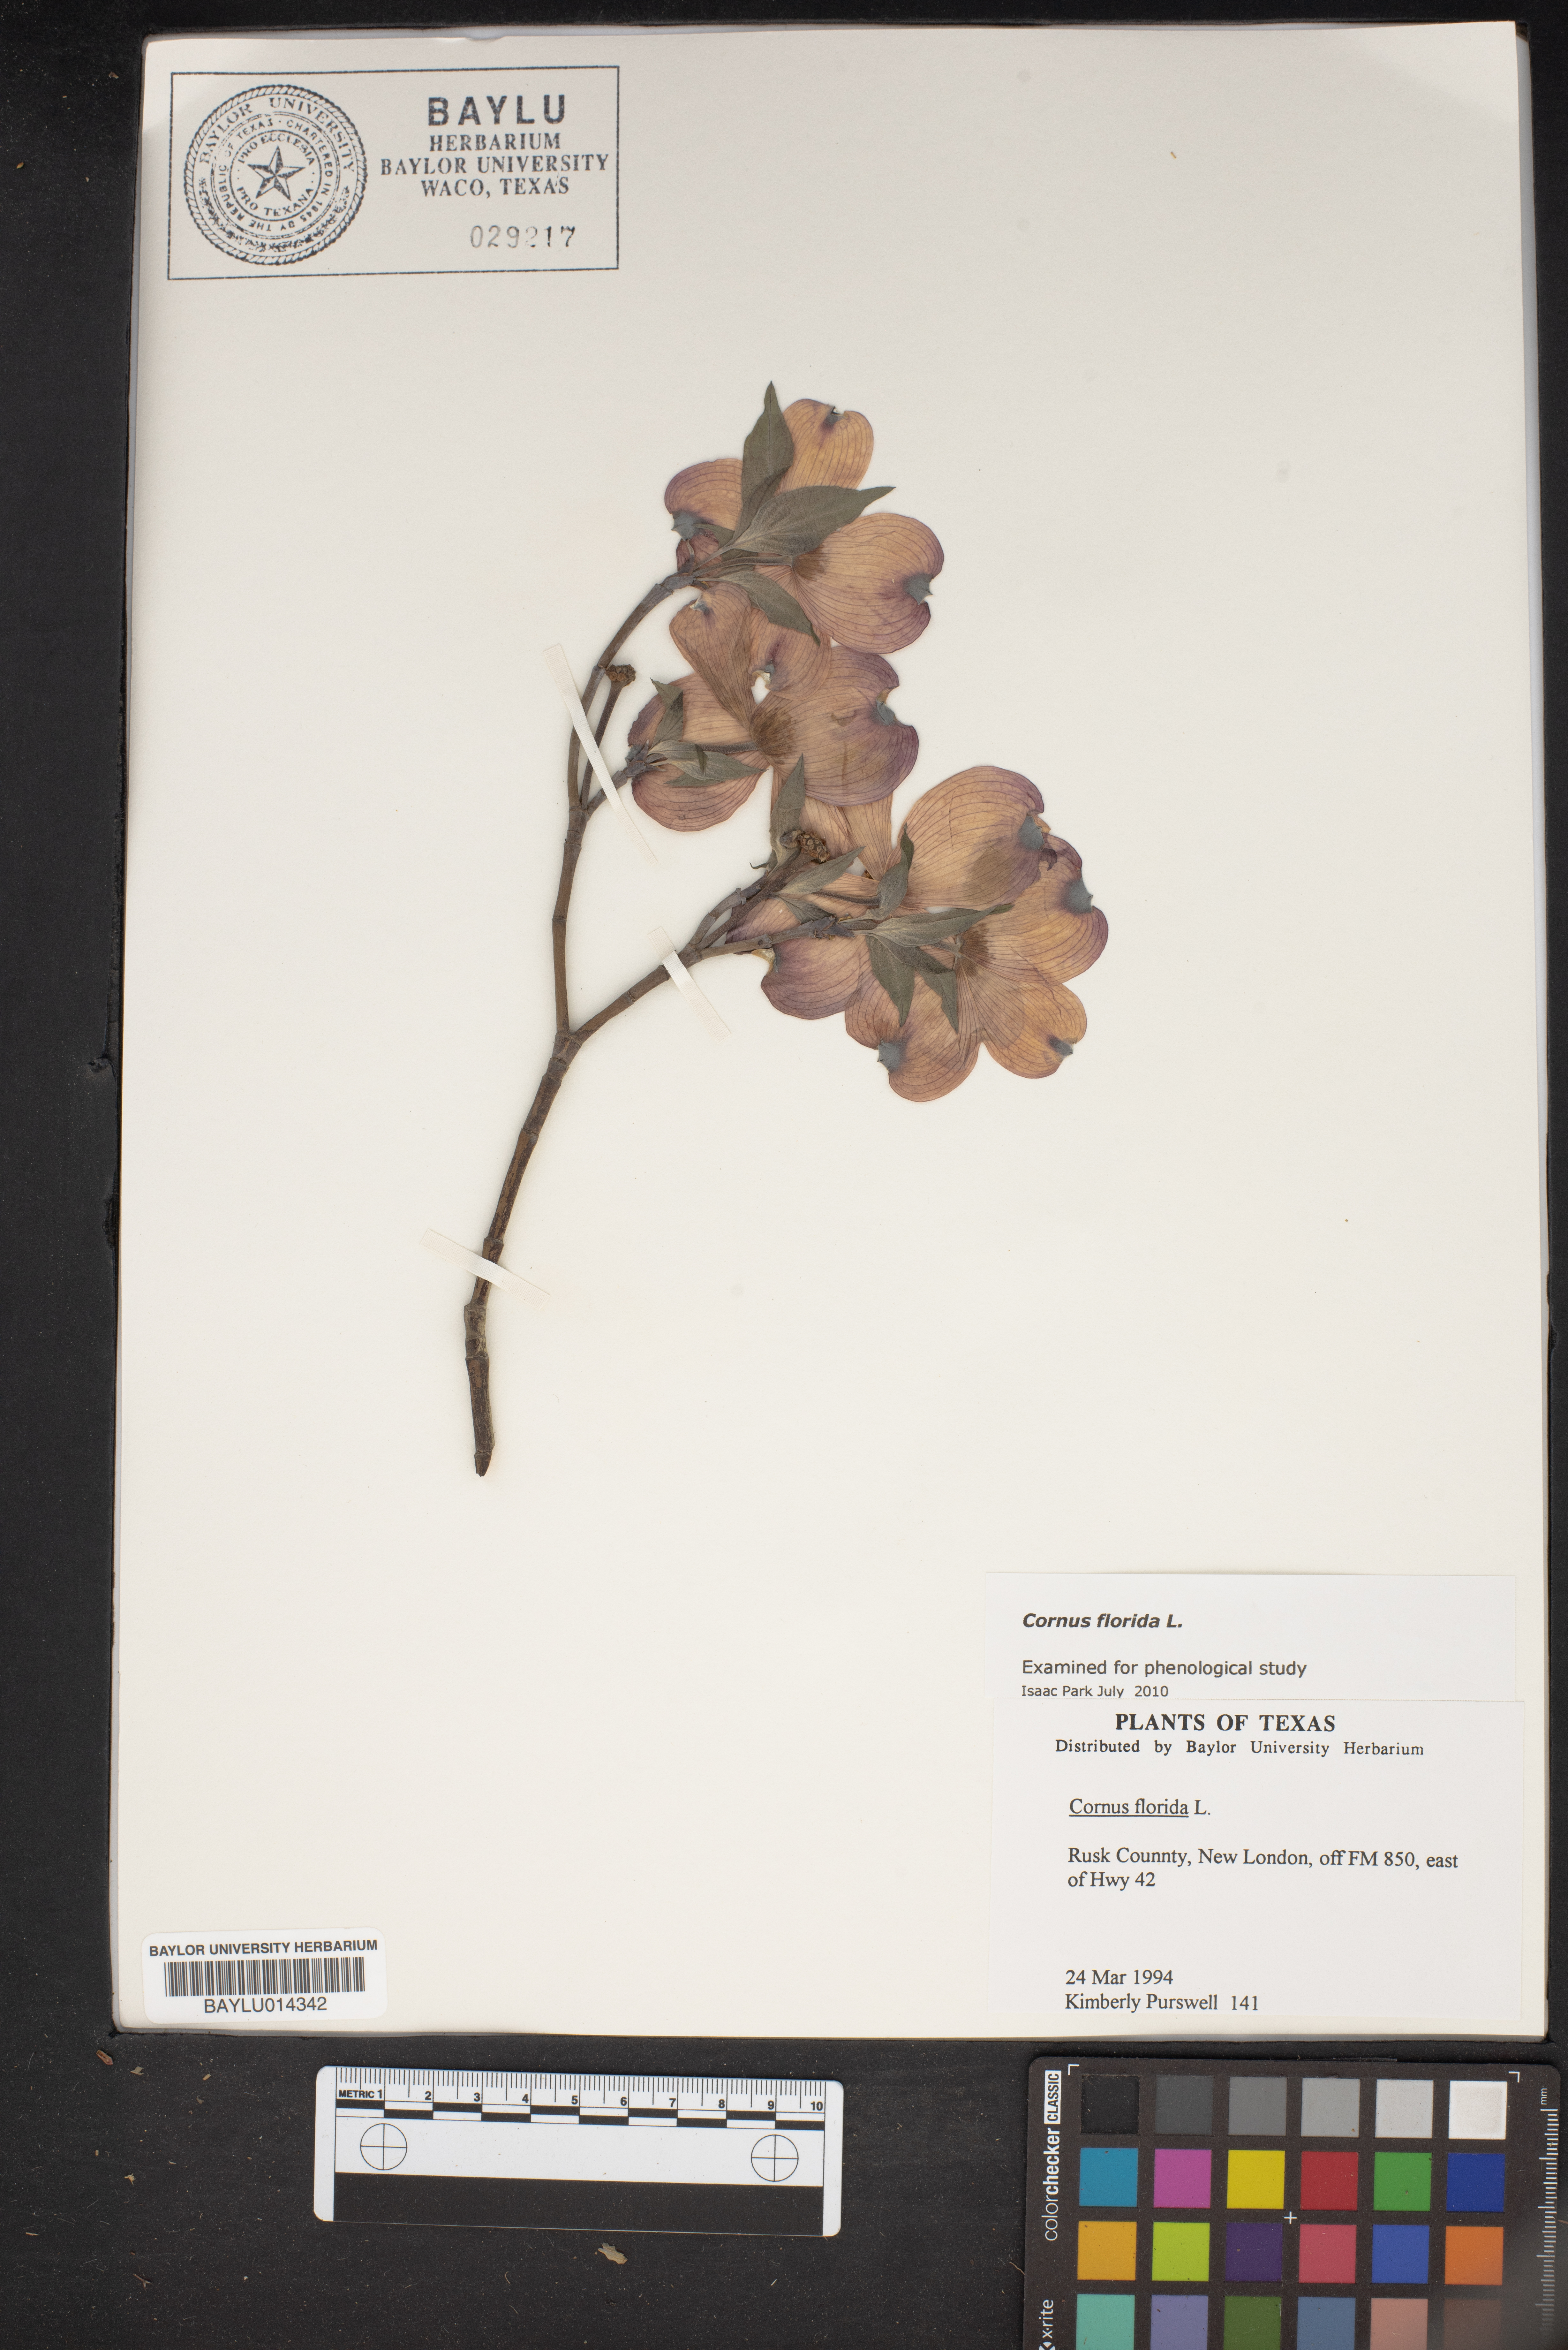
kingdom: Plantae
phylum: Tracheophyta
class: Magnoliopsida
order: Cornales
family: Cornaceae
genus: Cornus
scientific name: Cornus florida
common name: Flowering dogwood
